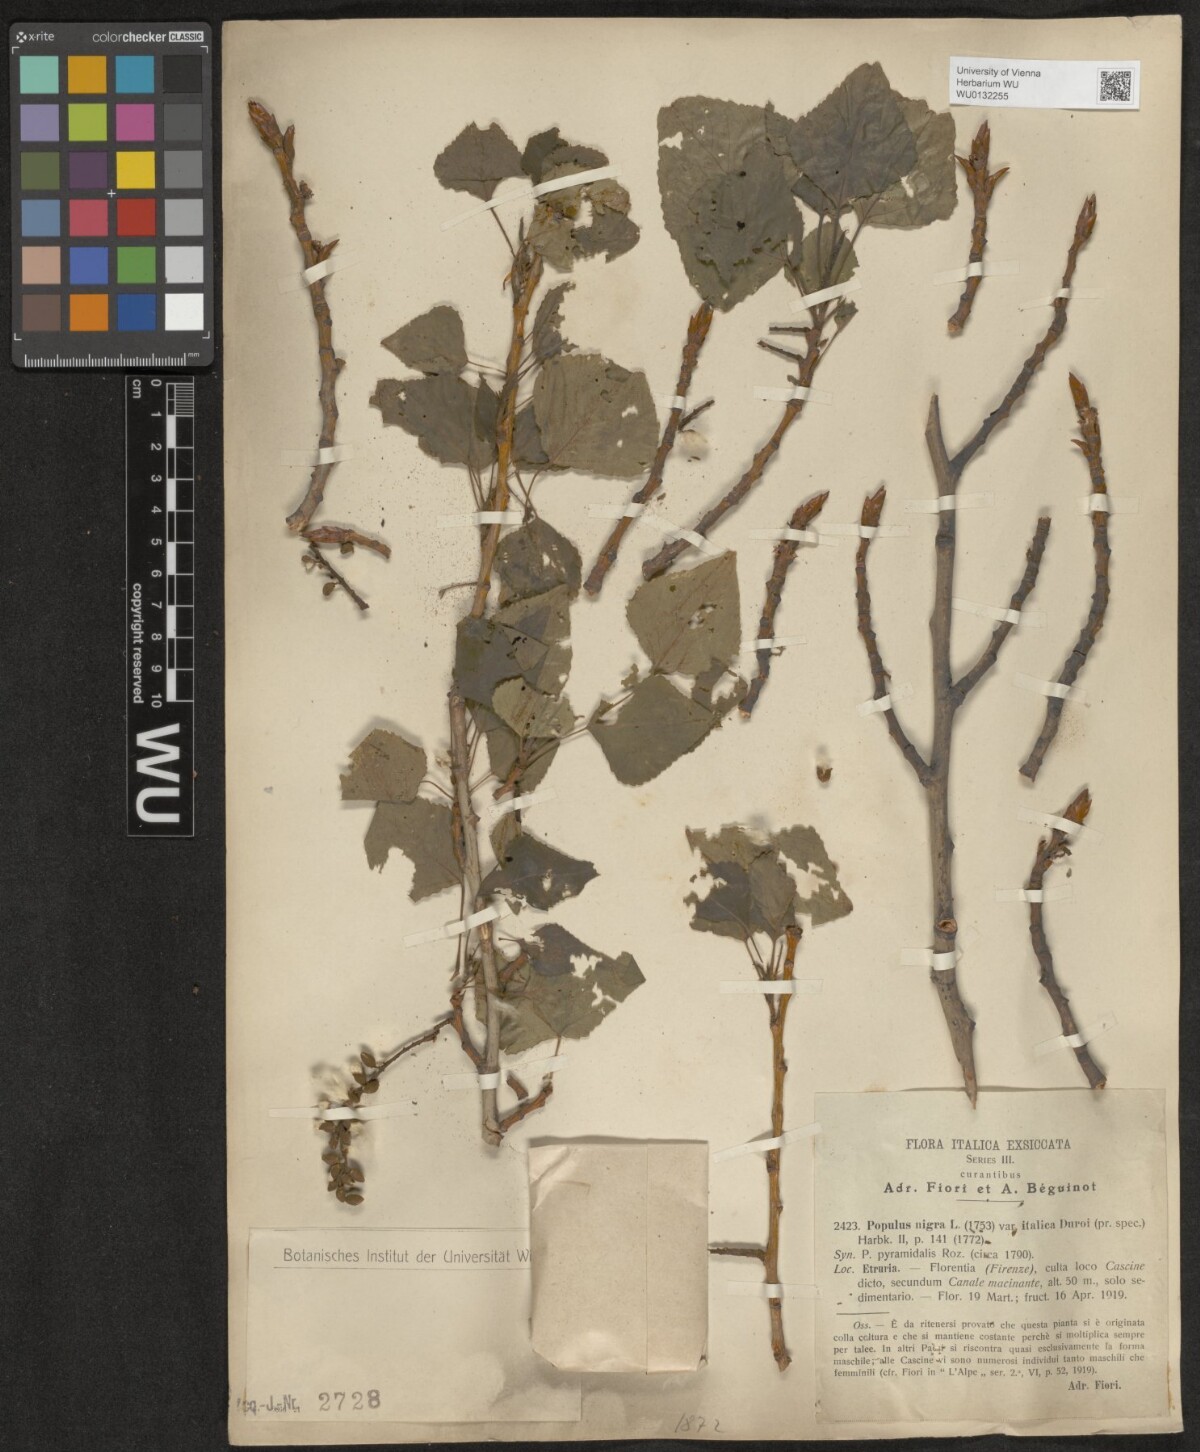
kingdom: Plantae
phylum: Tracheophyta
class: Magnoliopsida
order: Malpighiales
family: Salicaceae
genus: Populus
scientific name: Populus nigra
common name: Black poplar
